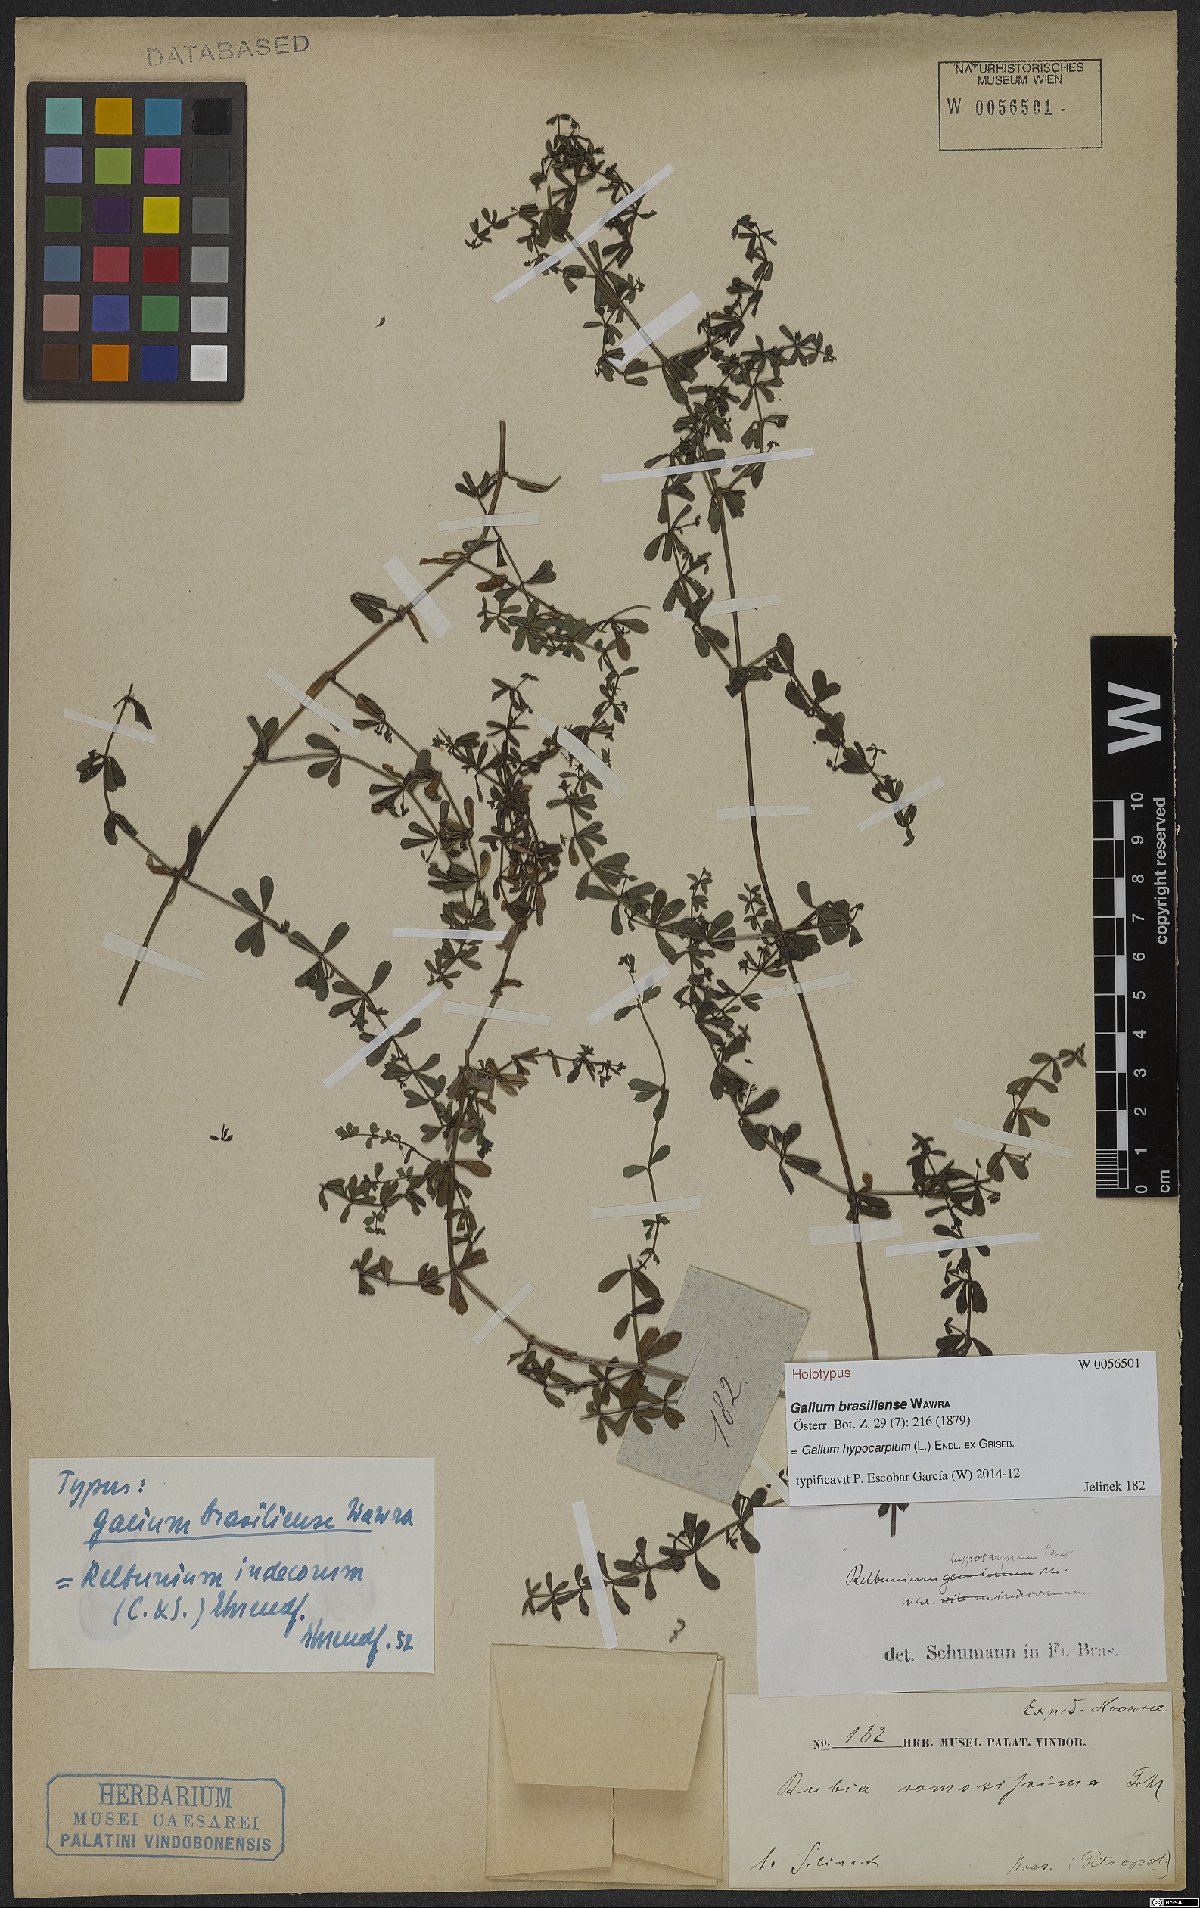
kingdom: Plantae
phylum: Tracheophyta
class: Magnoliopsida
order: Gentianales
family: Rubiaceae
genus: Galium
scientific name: Galium hypocarpium
